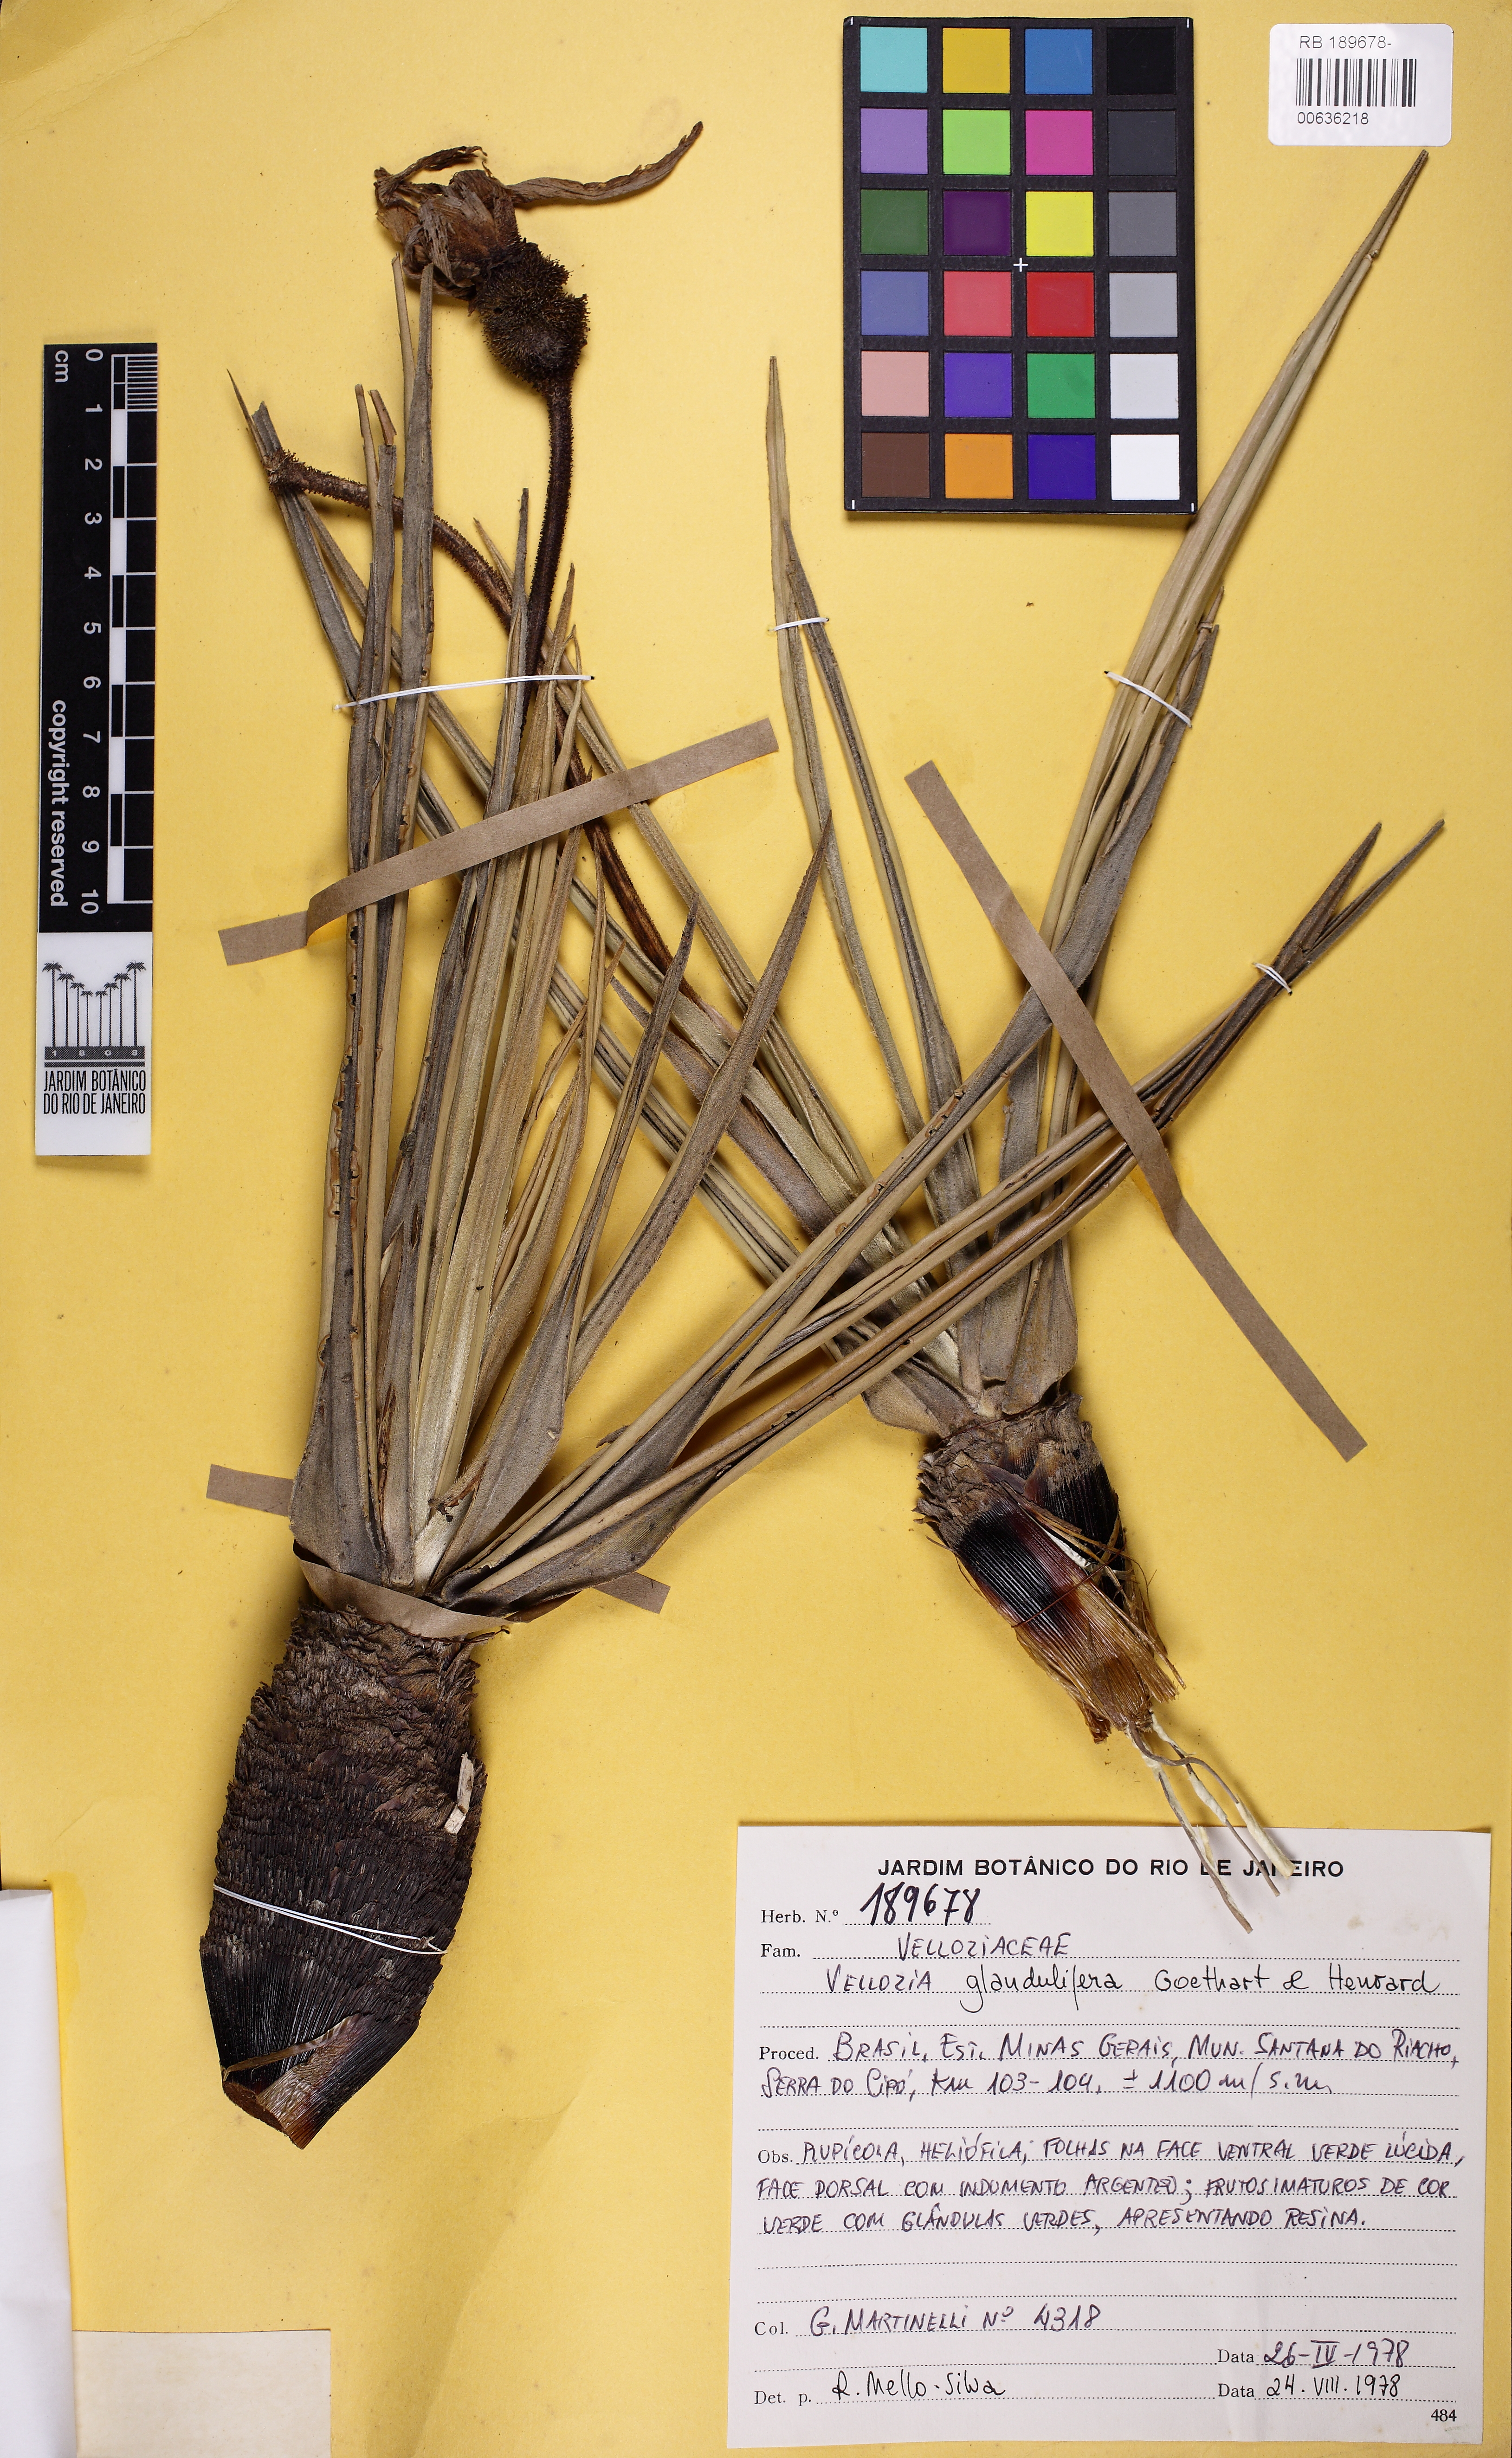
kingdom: Plantae
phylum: Tracheophyta
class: Liliopsida
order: Pandanales
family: Velloziaceae
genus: Vellozia
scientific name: Vellozia glandulifera
